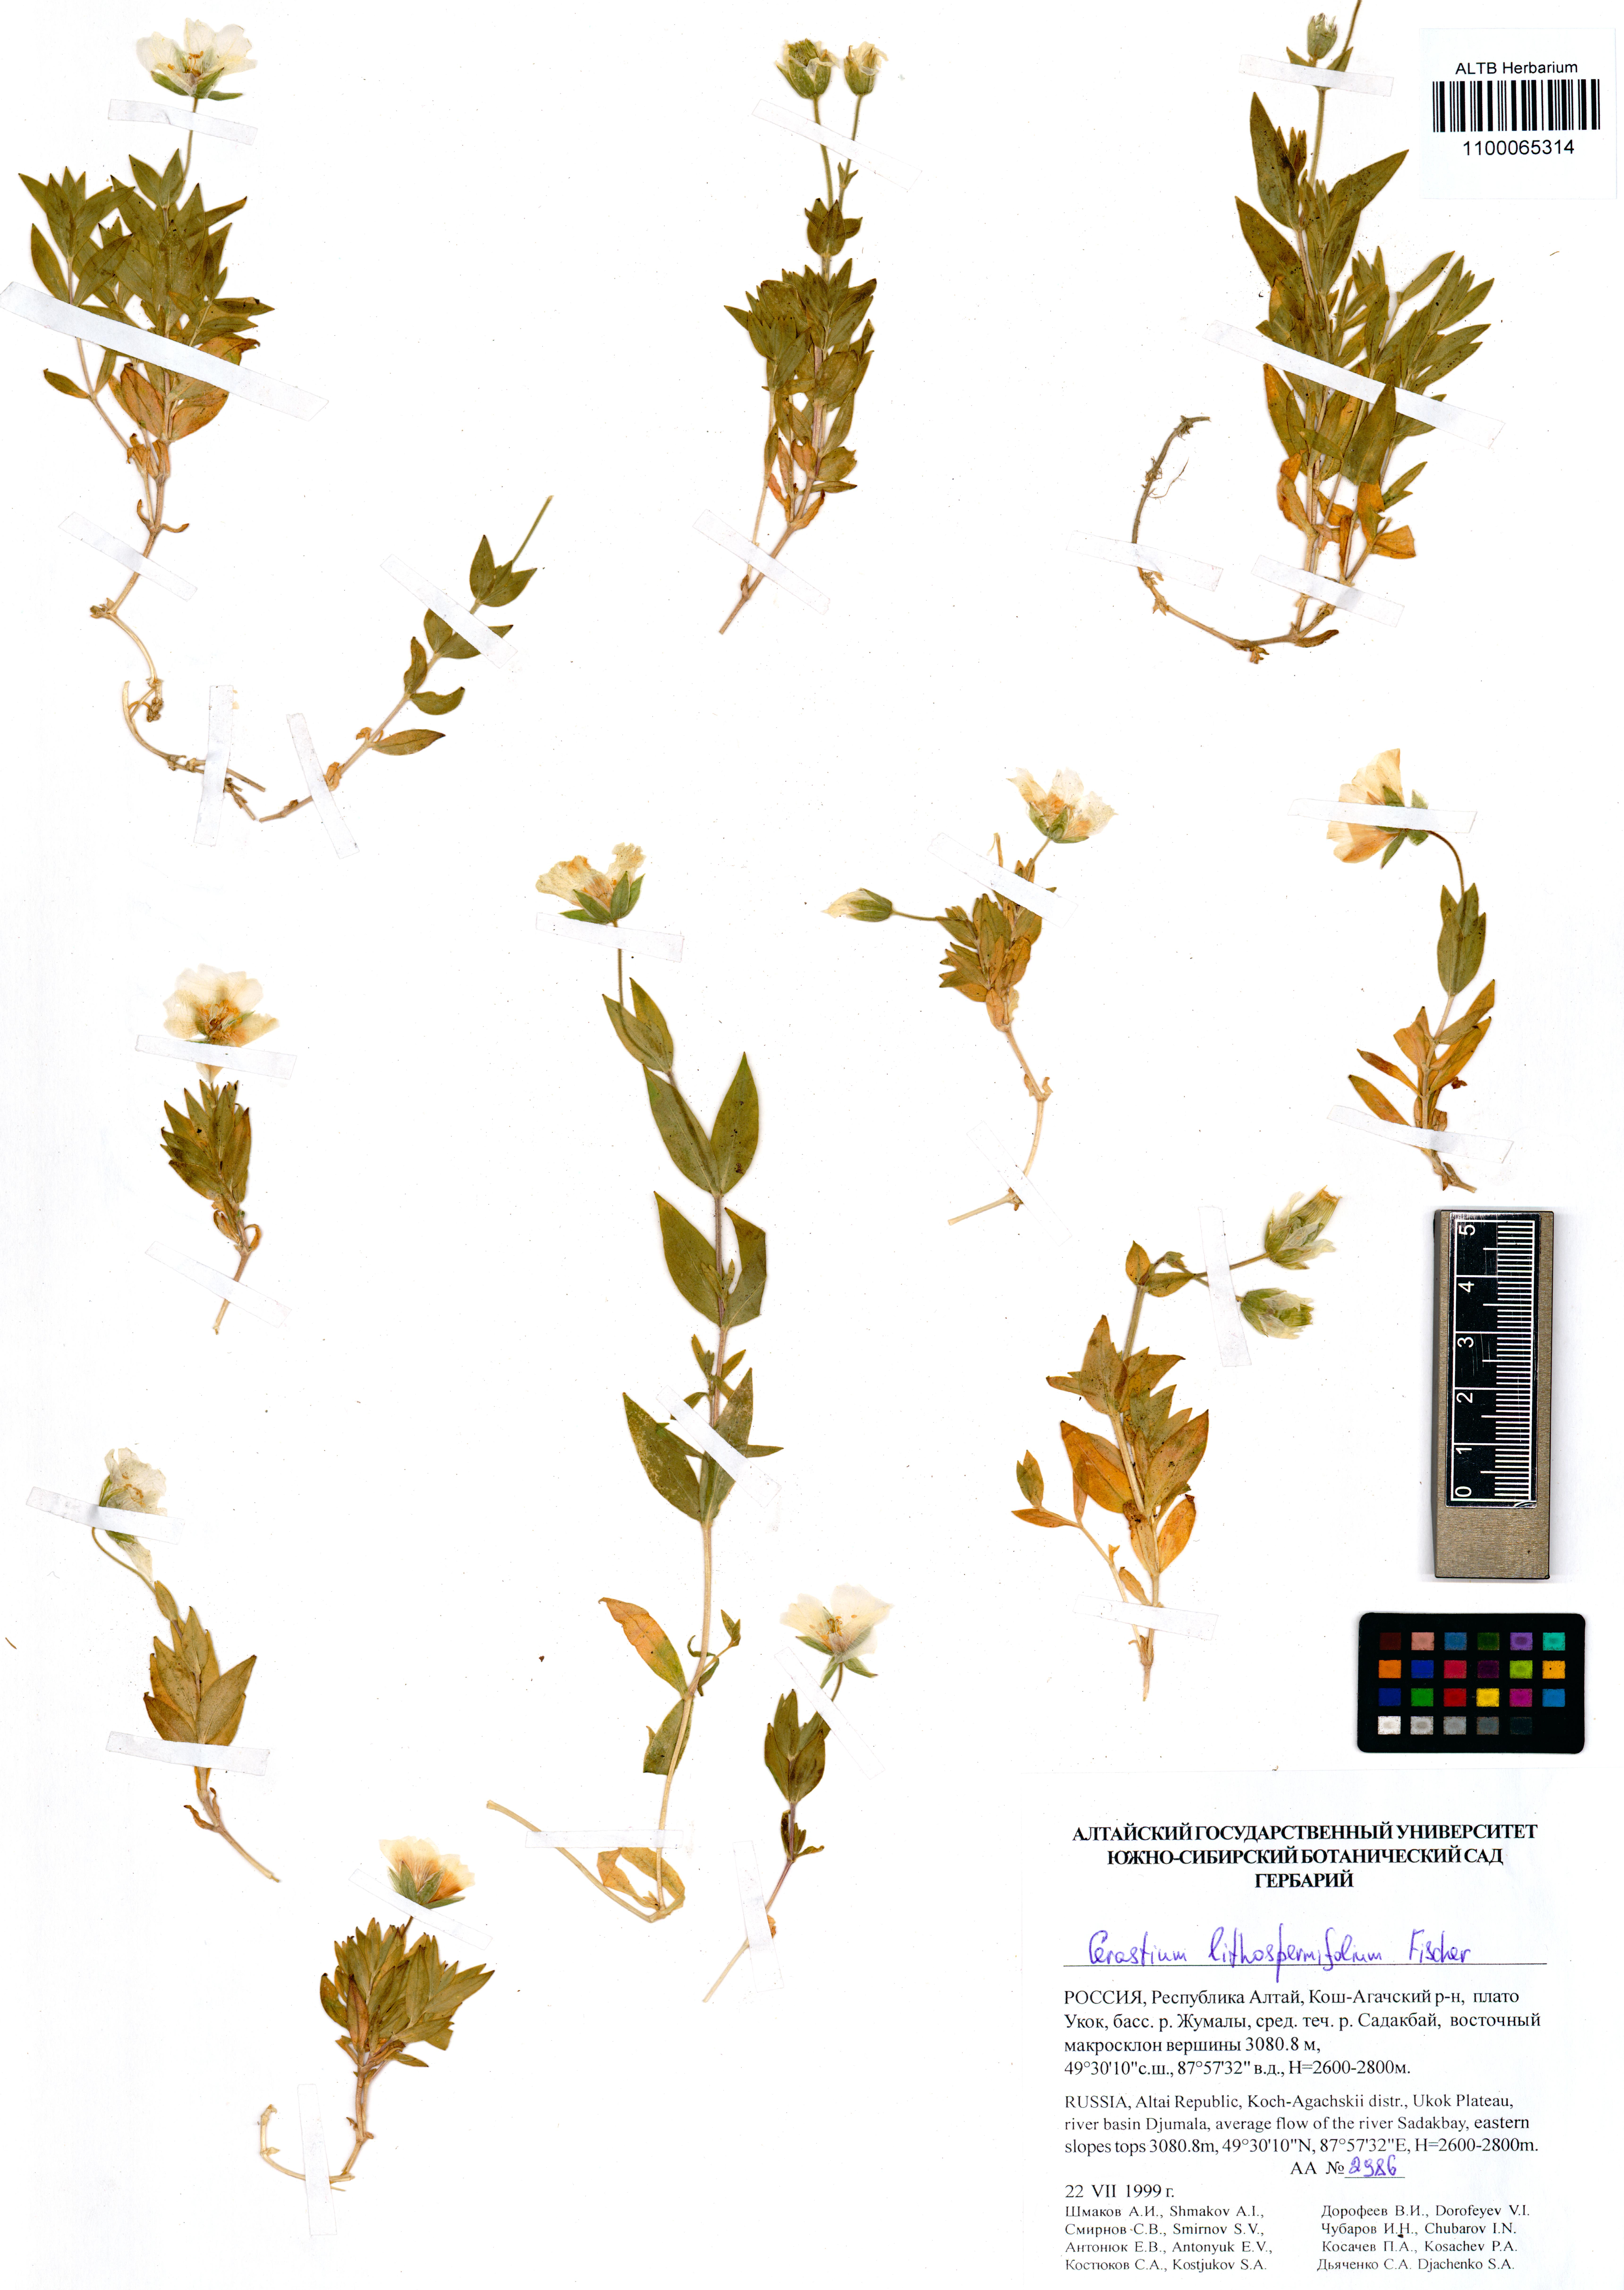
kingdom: Plantae
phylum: Tracheophyta
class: Magnoliopsida
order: Caryophyllales
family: Caryophyllaceae
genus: Cerastium
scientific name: Cerastium lithospermifolium
